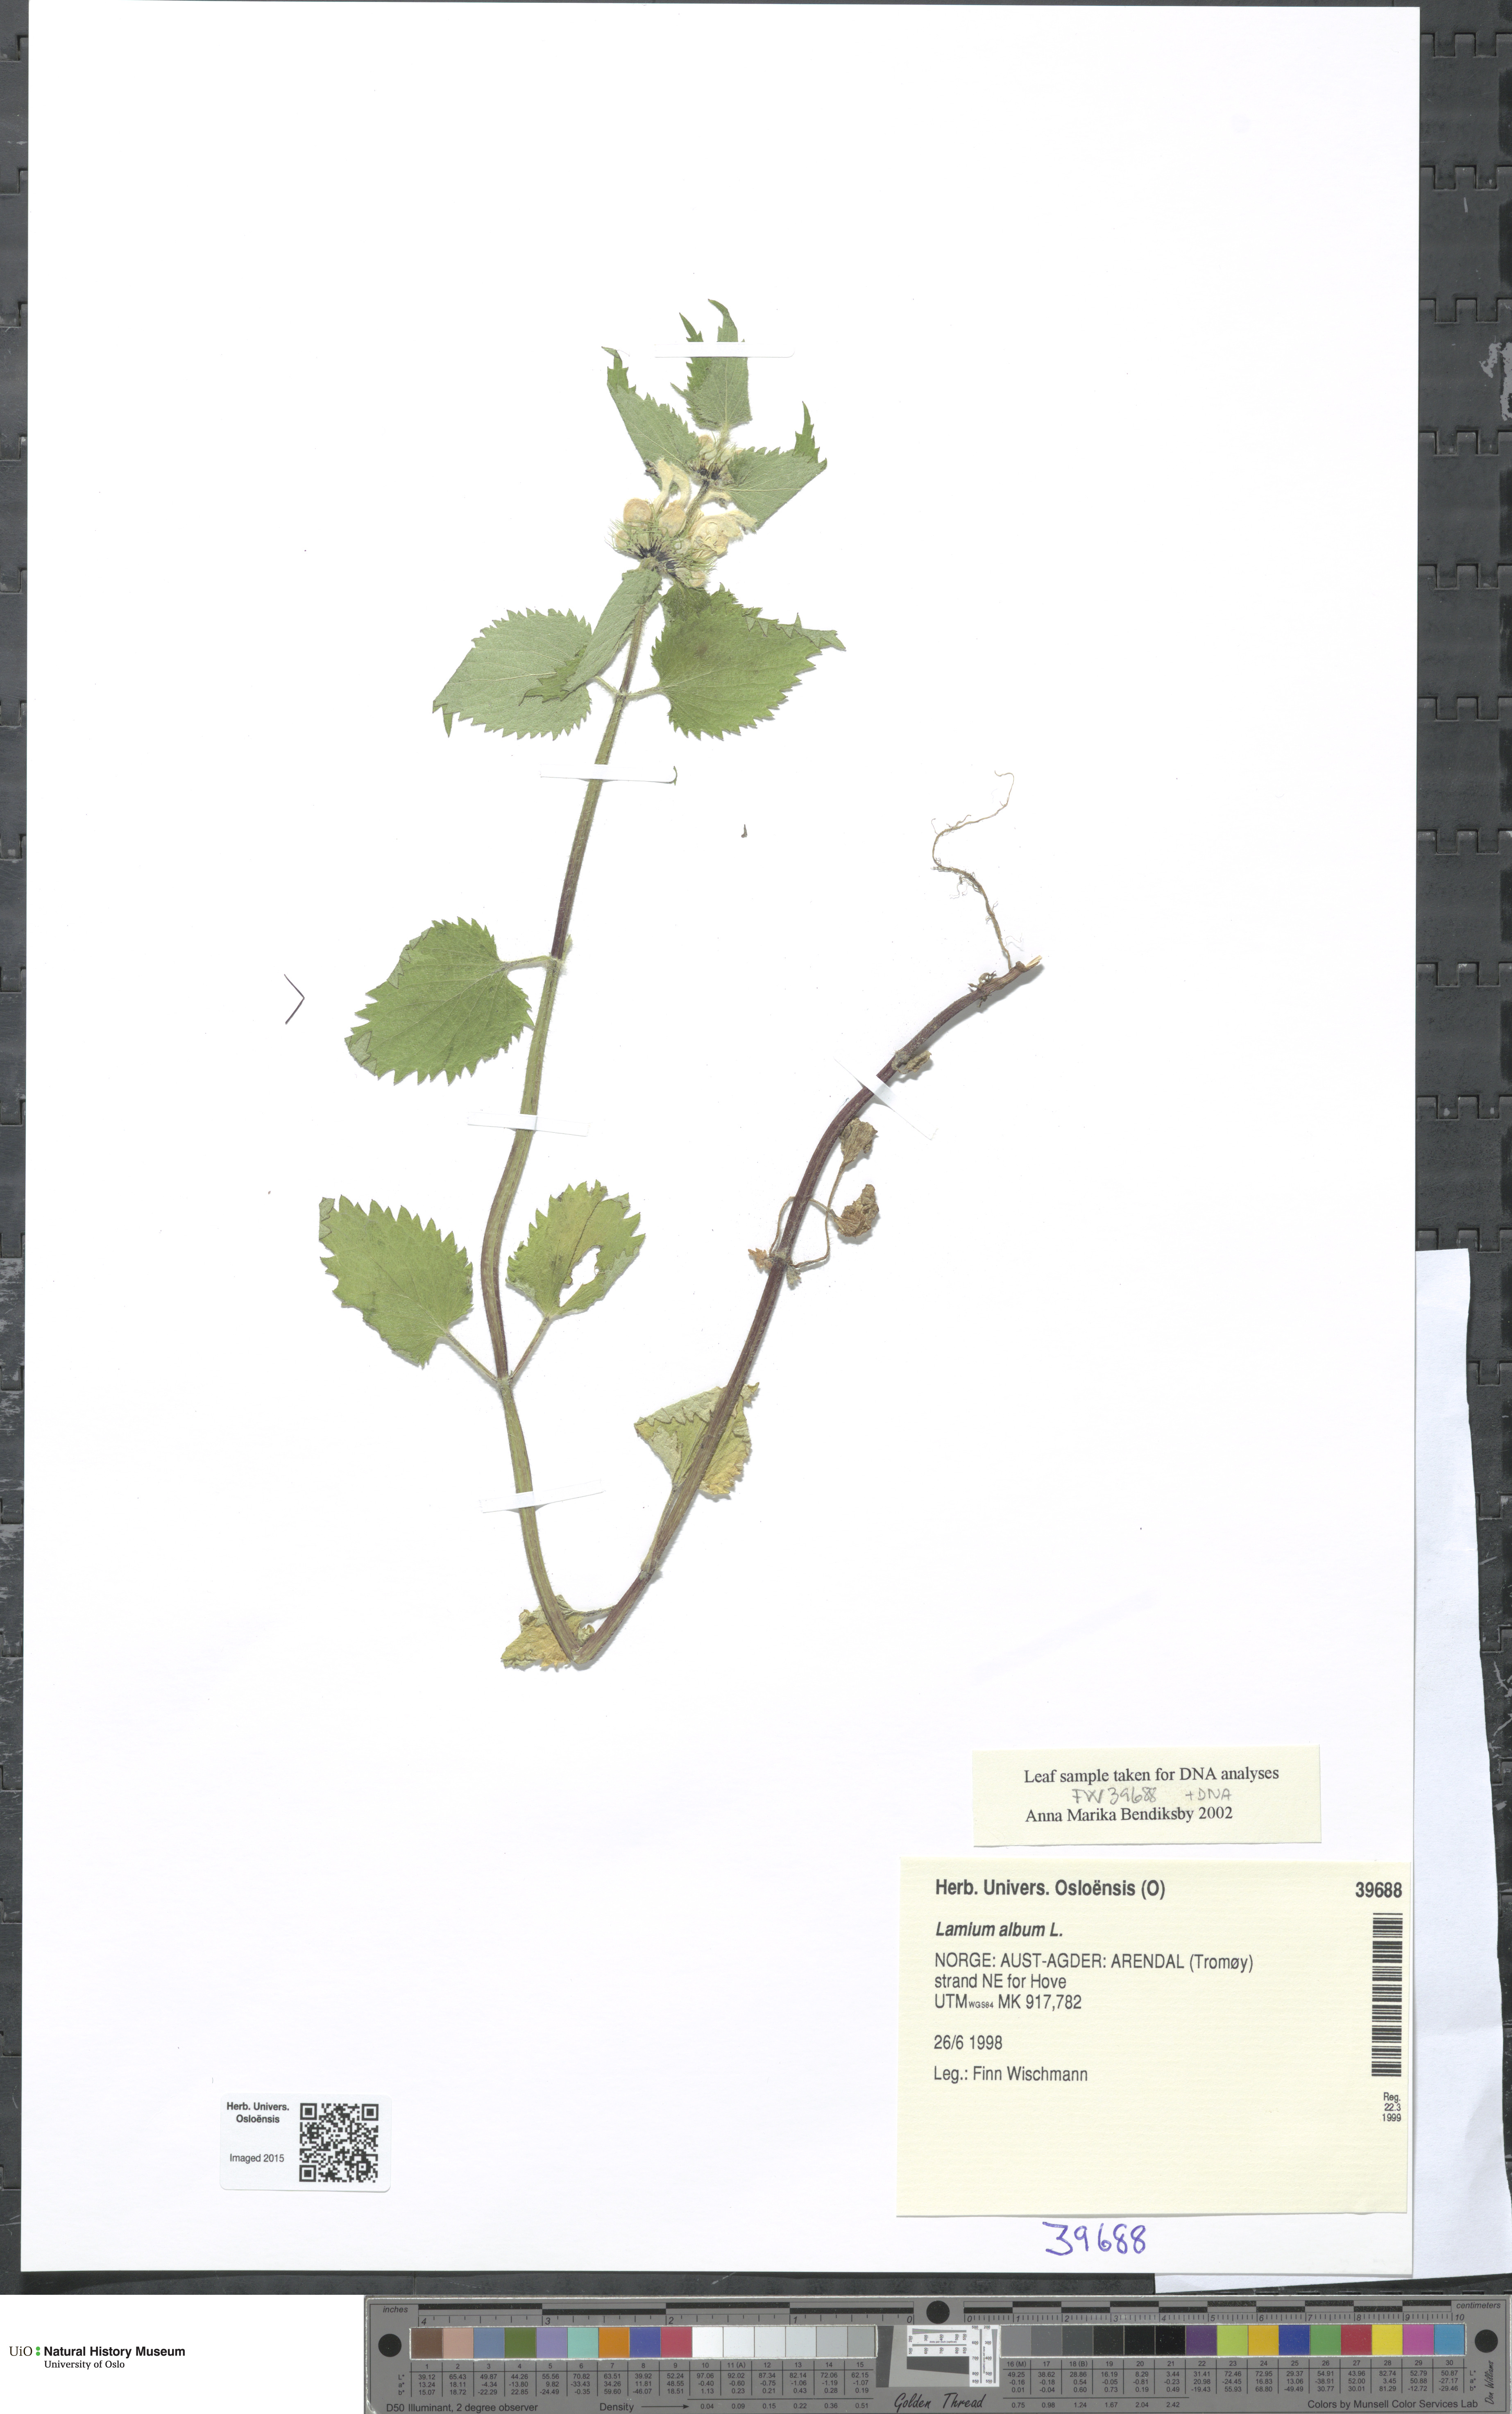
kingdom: Plantae
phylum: Tracheophyta
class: Magnoliopsida
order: Lamiales
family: Lamiaceae
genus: Lamium
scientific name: Lamium album
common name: White dead-nettle
